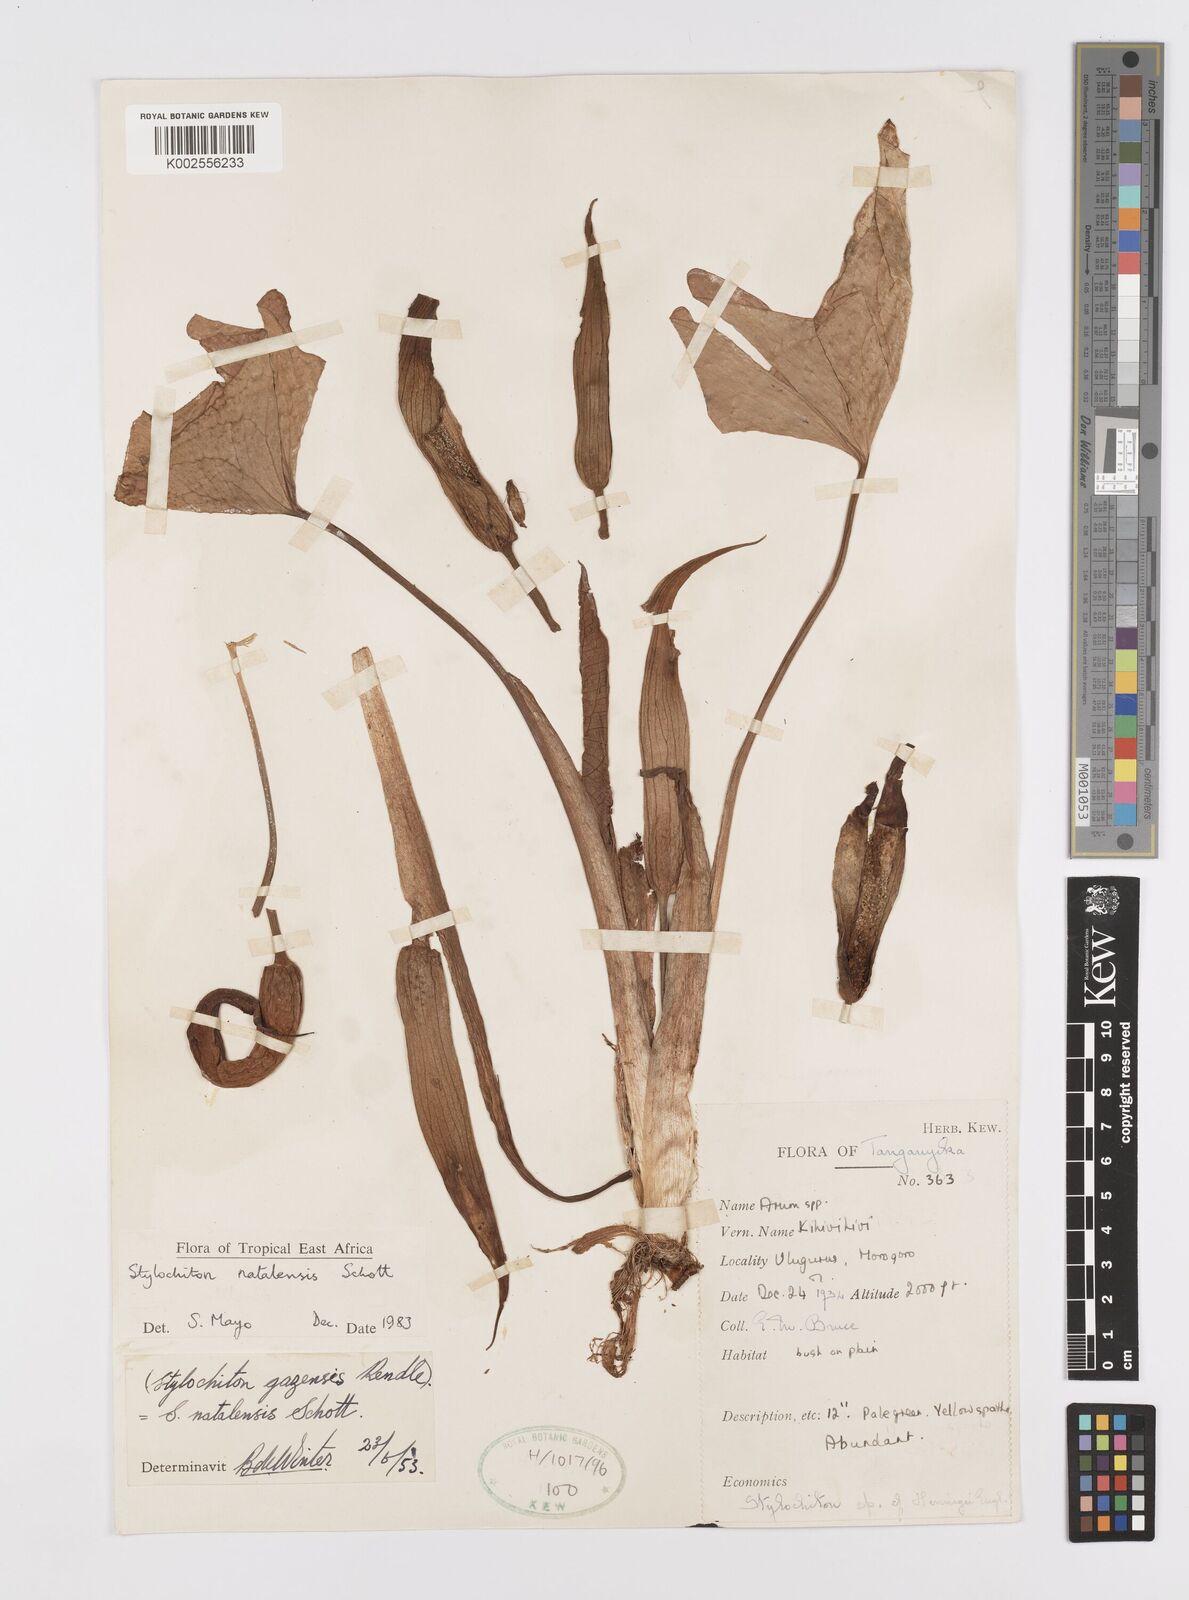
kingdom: Plantae
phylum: Tracheophyta
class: Liliopsida
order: Alismatales
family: Araceae
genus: Stylochaeton
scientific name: Stylochaeton natalense
